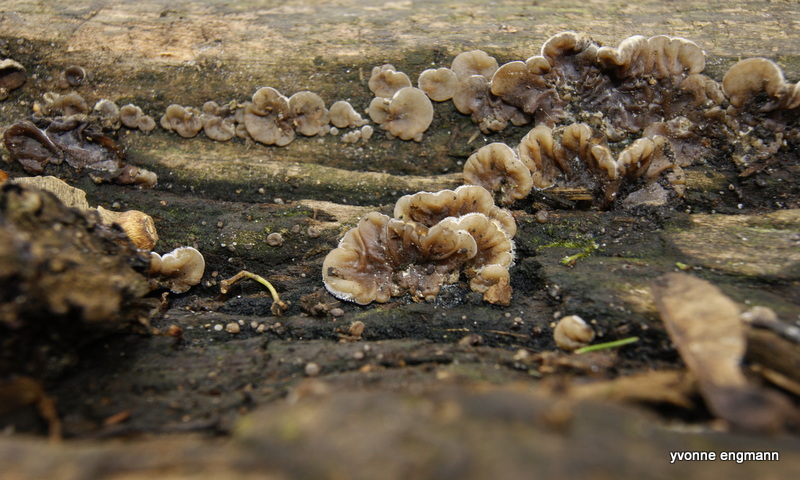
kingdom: Fungi
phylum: Basidiomycota
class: Agaricomycetes
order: Auriculariales
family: Auriculariaceae
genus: Auricularia
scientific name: Auricularia mesenterica
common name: håret judasøre
